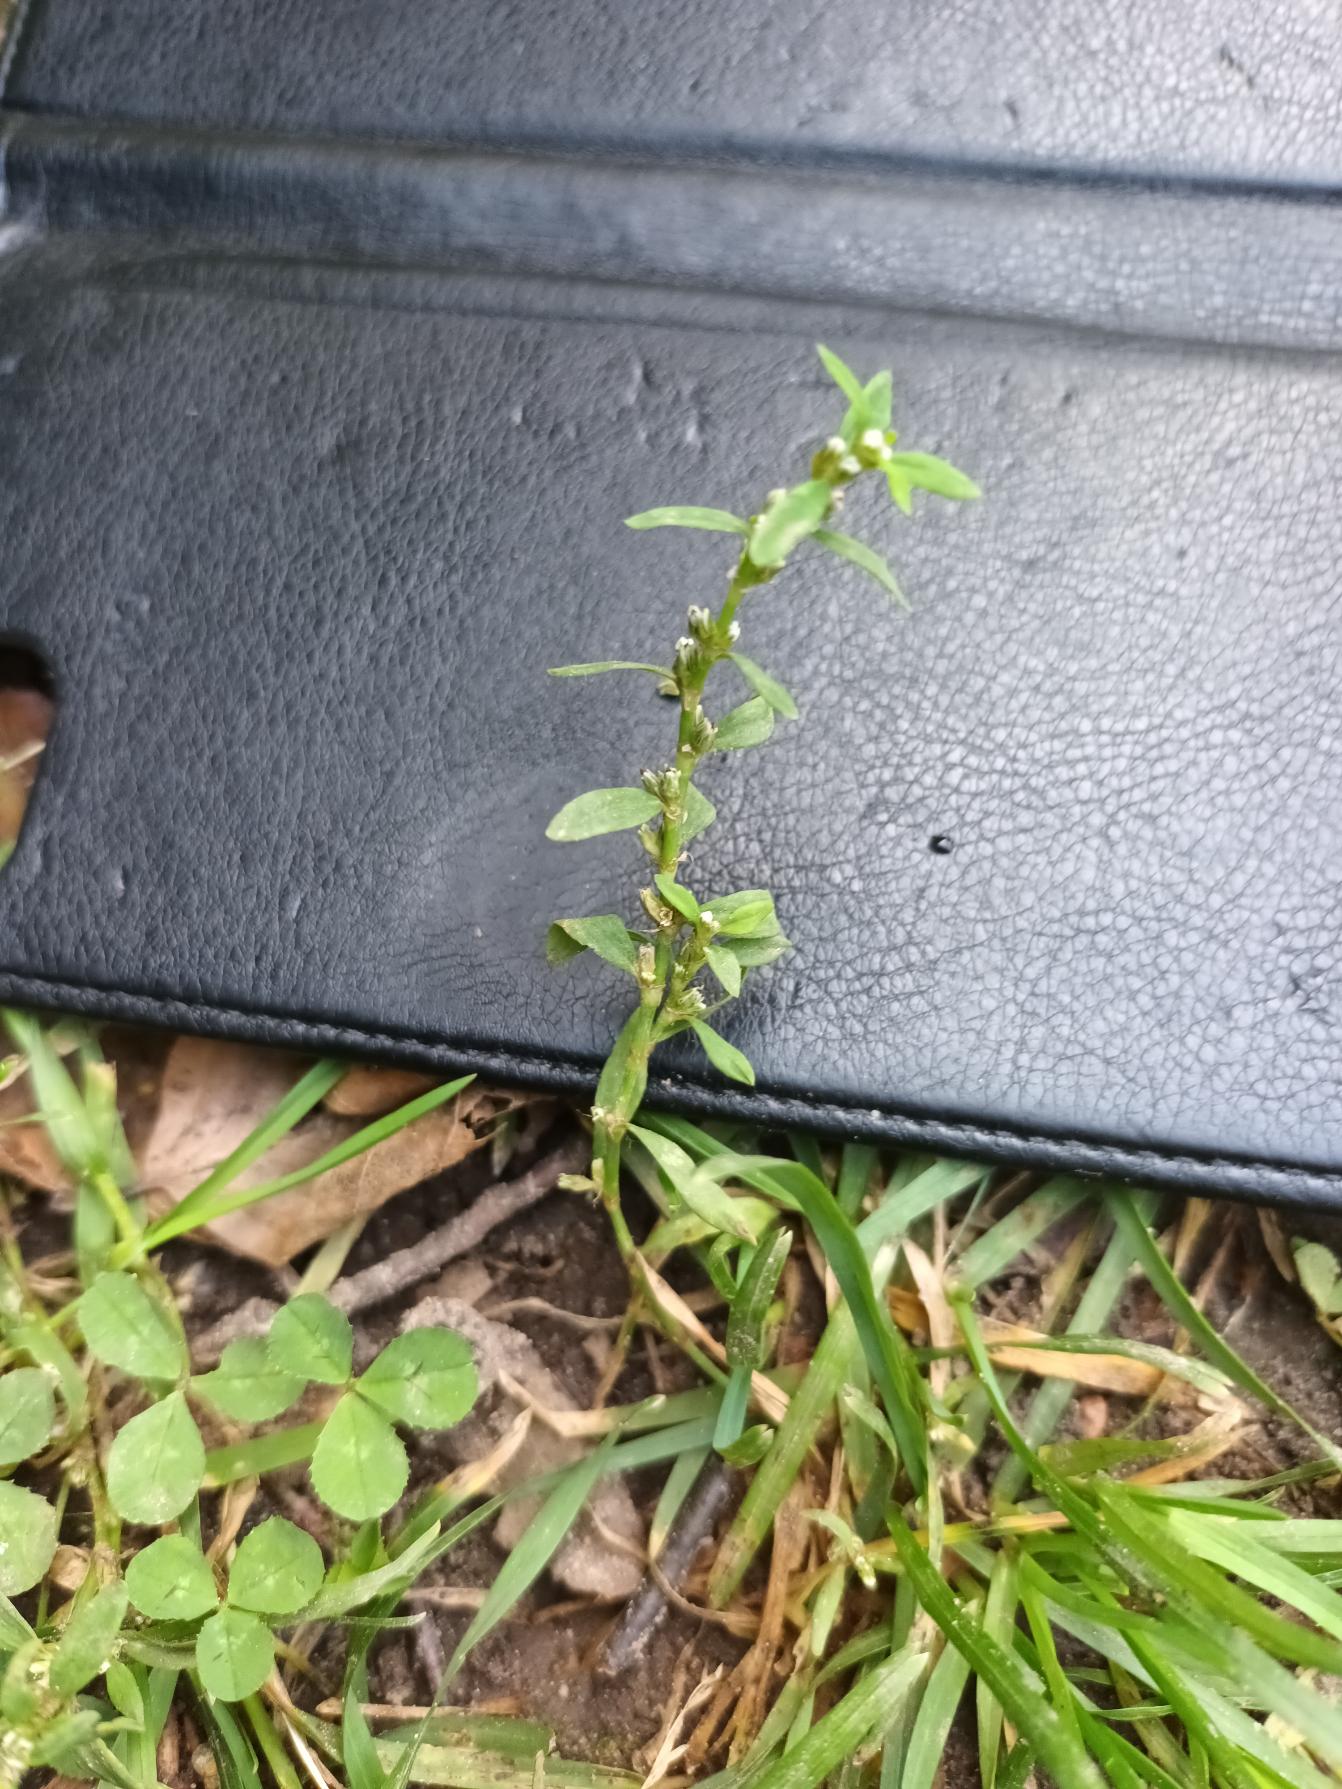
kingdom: Plantae
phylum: Tracheophyta
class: Magnoliopsida
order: Caryophyllales
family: Polygonaceae
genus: Polygonum
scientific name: Polygonum arenastrum
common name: Liggende vej-pileurt
